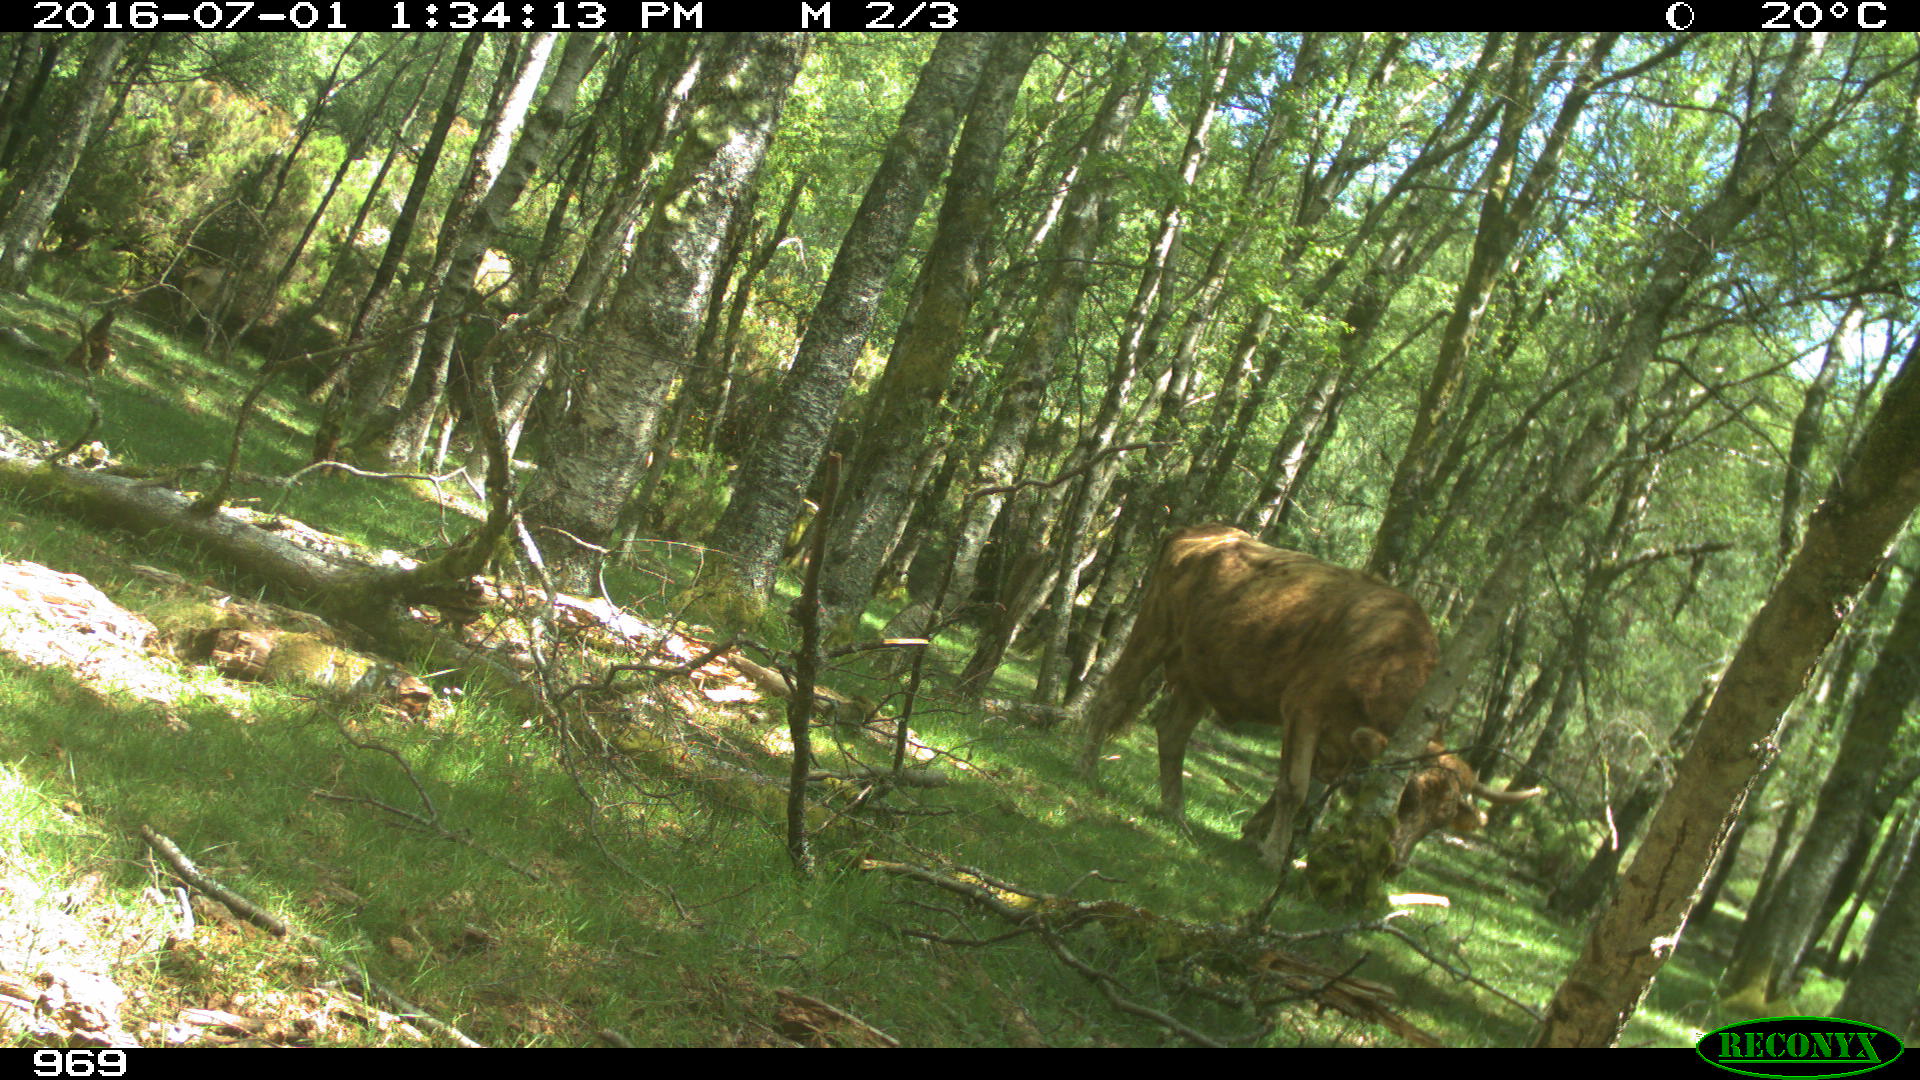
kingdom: Animalia
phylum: Chordata
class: Mammalia
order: Artiodactyla
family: Bovidae
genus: Bos
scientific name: Bos taurus
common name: Domesticated cattle
